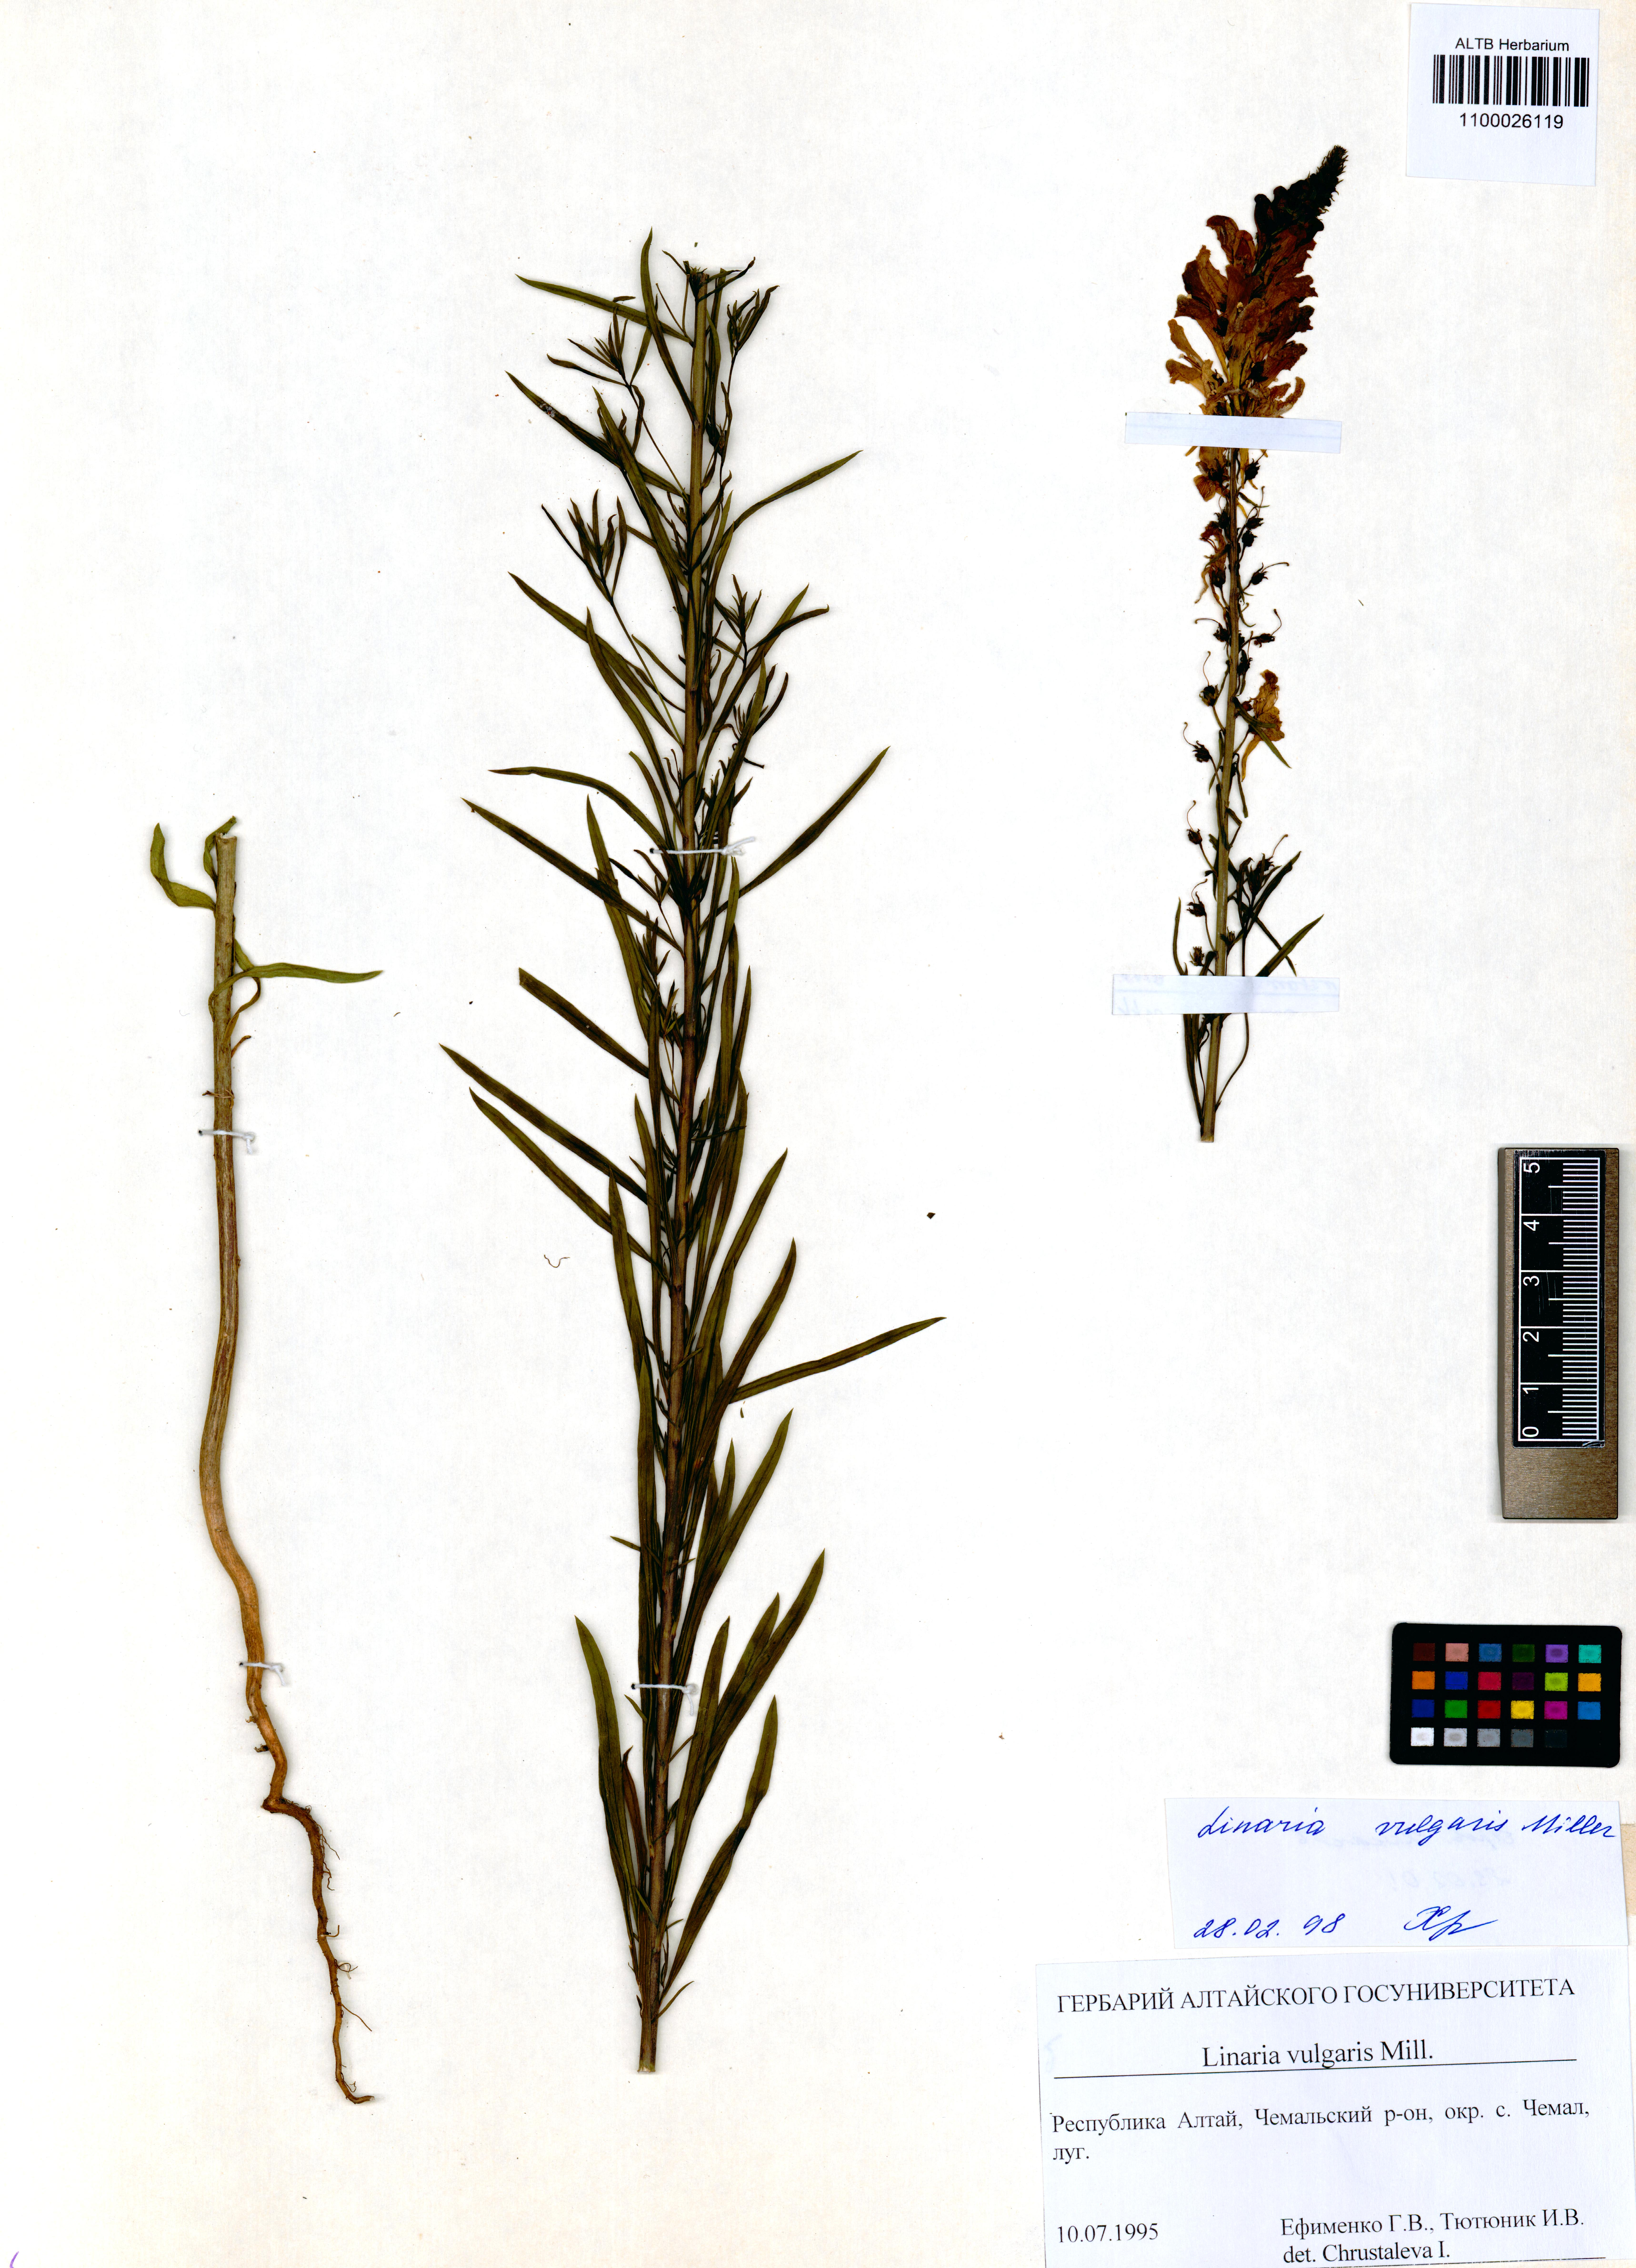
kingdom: Plantae
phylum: Tracheophyta
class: Magnoliopsida
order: Lamiales
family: Plantaginaceae
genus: Linaria
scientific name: Linaria vulgaris
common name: Butter and eggs
